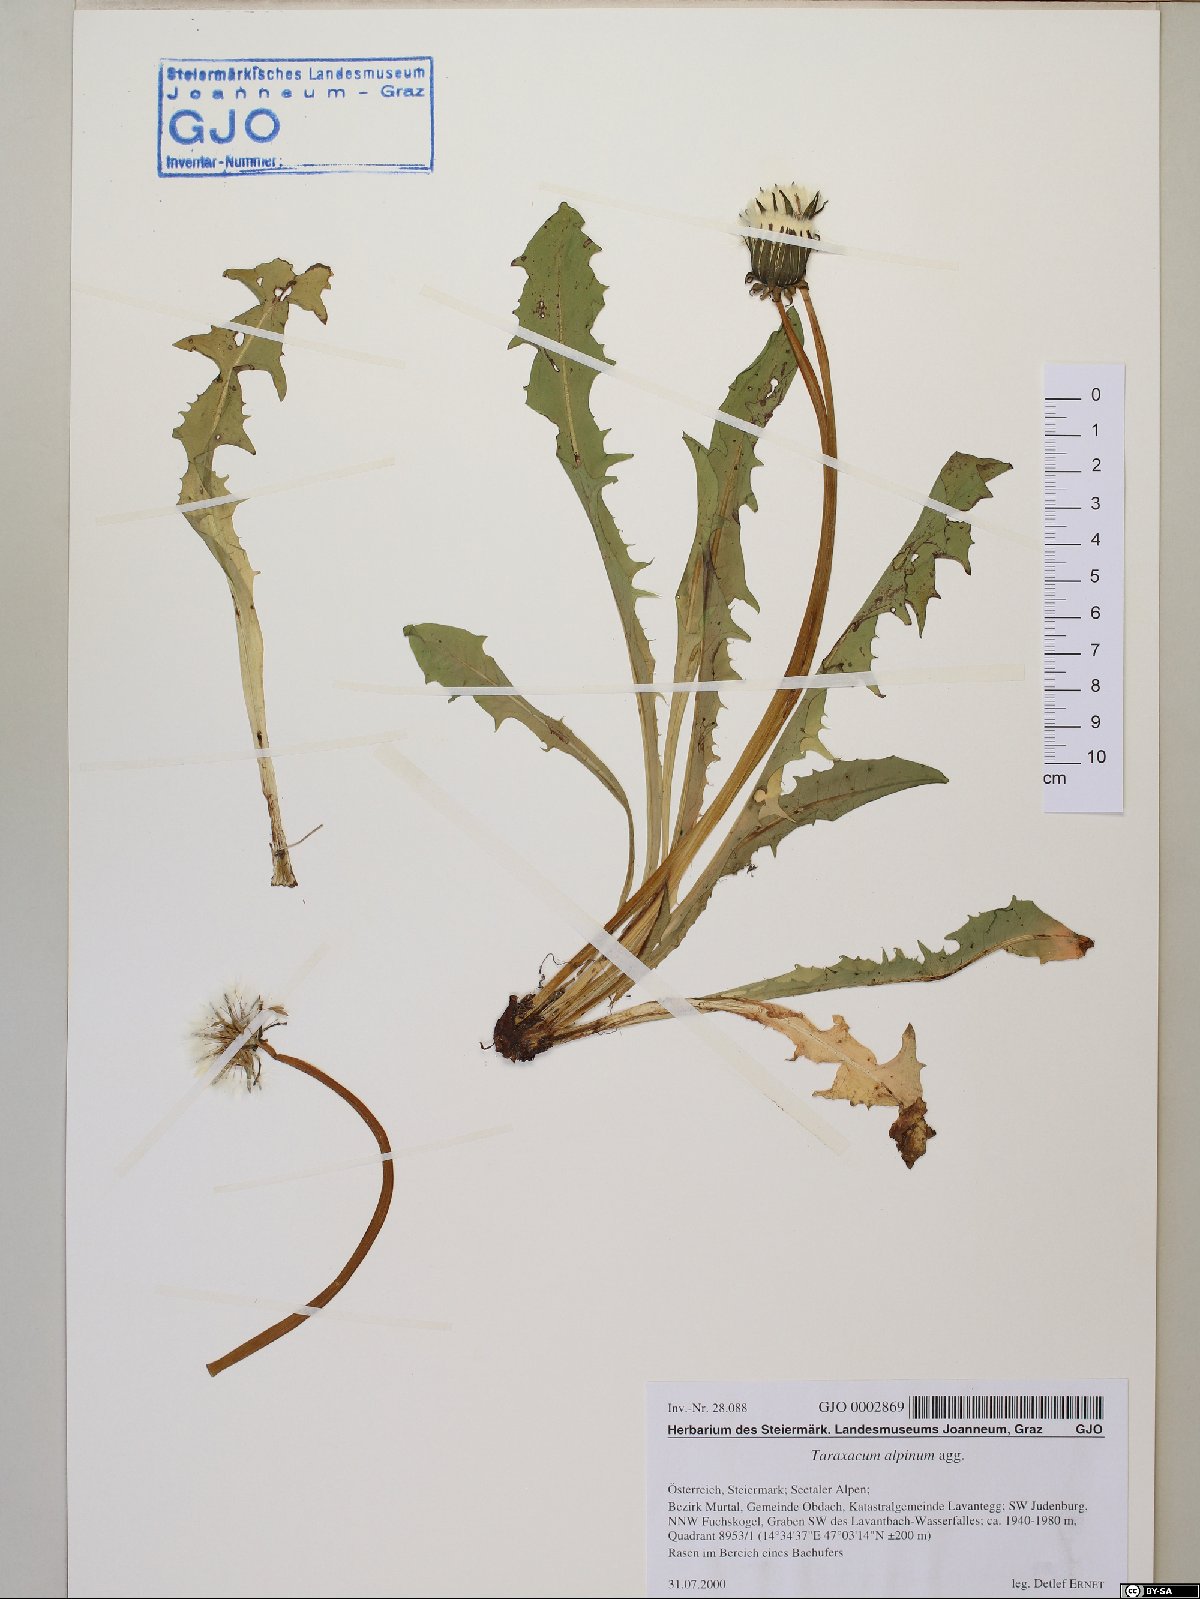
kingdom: Plantae
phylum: Tracheophyta
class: Magnoliopsida
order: Asterales
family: Asteraceae
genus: Taraxacum
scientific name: Taraxacum alpinum
